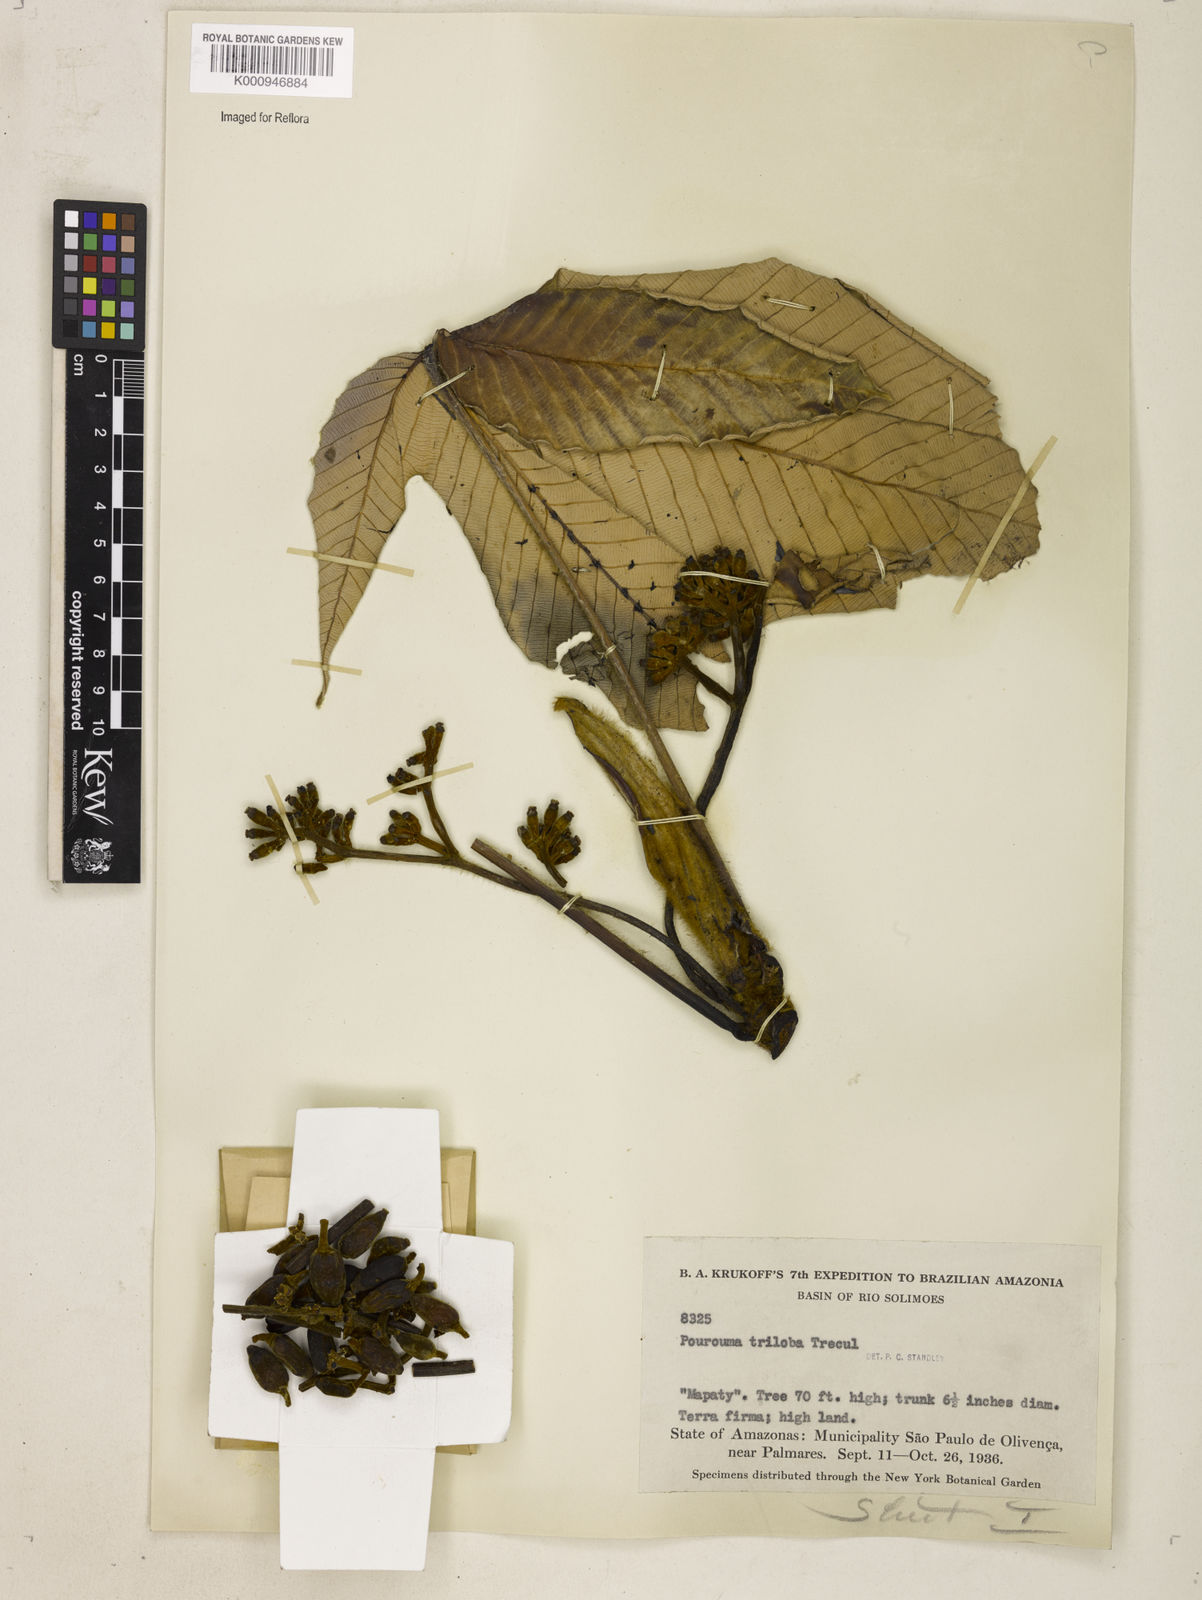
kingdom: Plantae
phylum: Tracheophyta
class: Magnoliopsida
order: Rosales
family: Urticaceae
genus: Pourouma
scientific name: Pourouma
